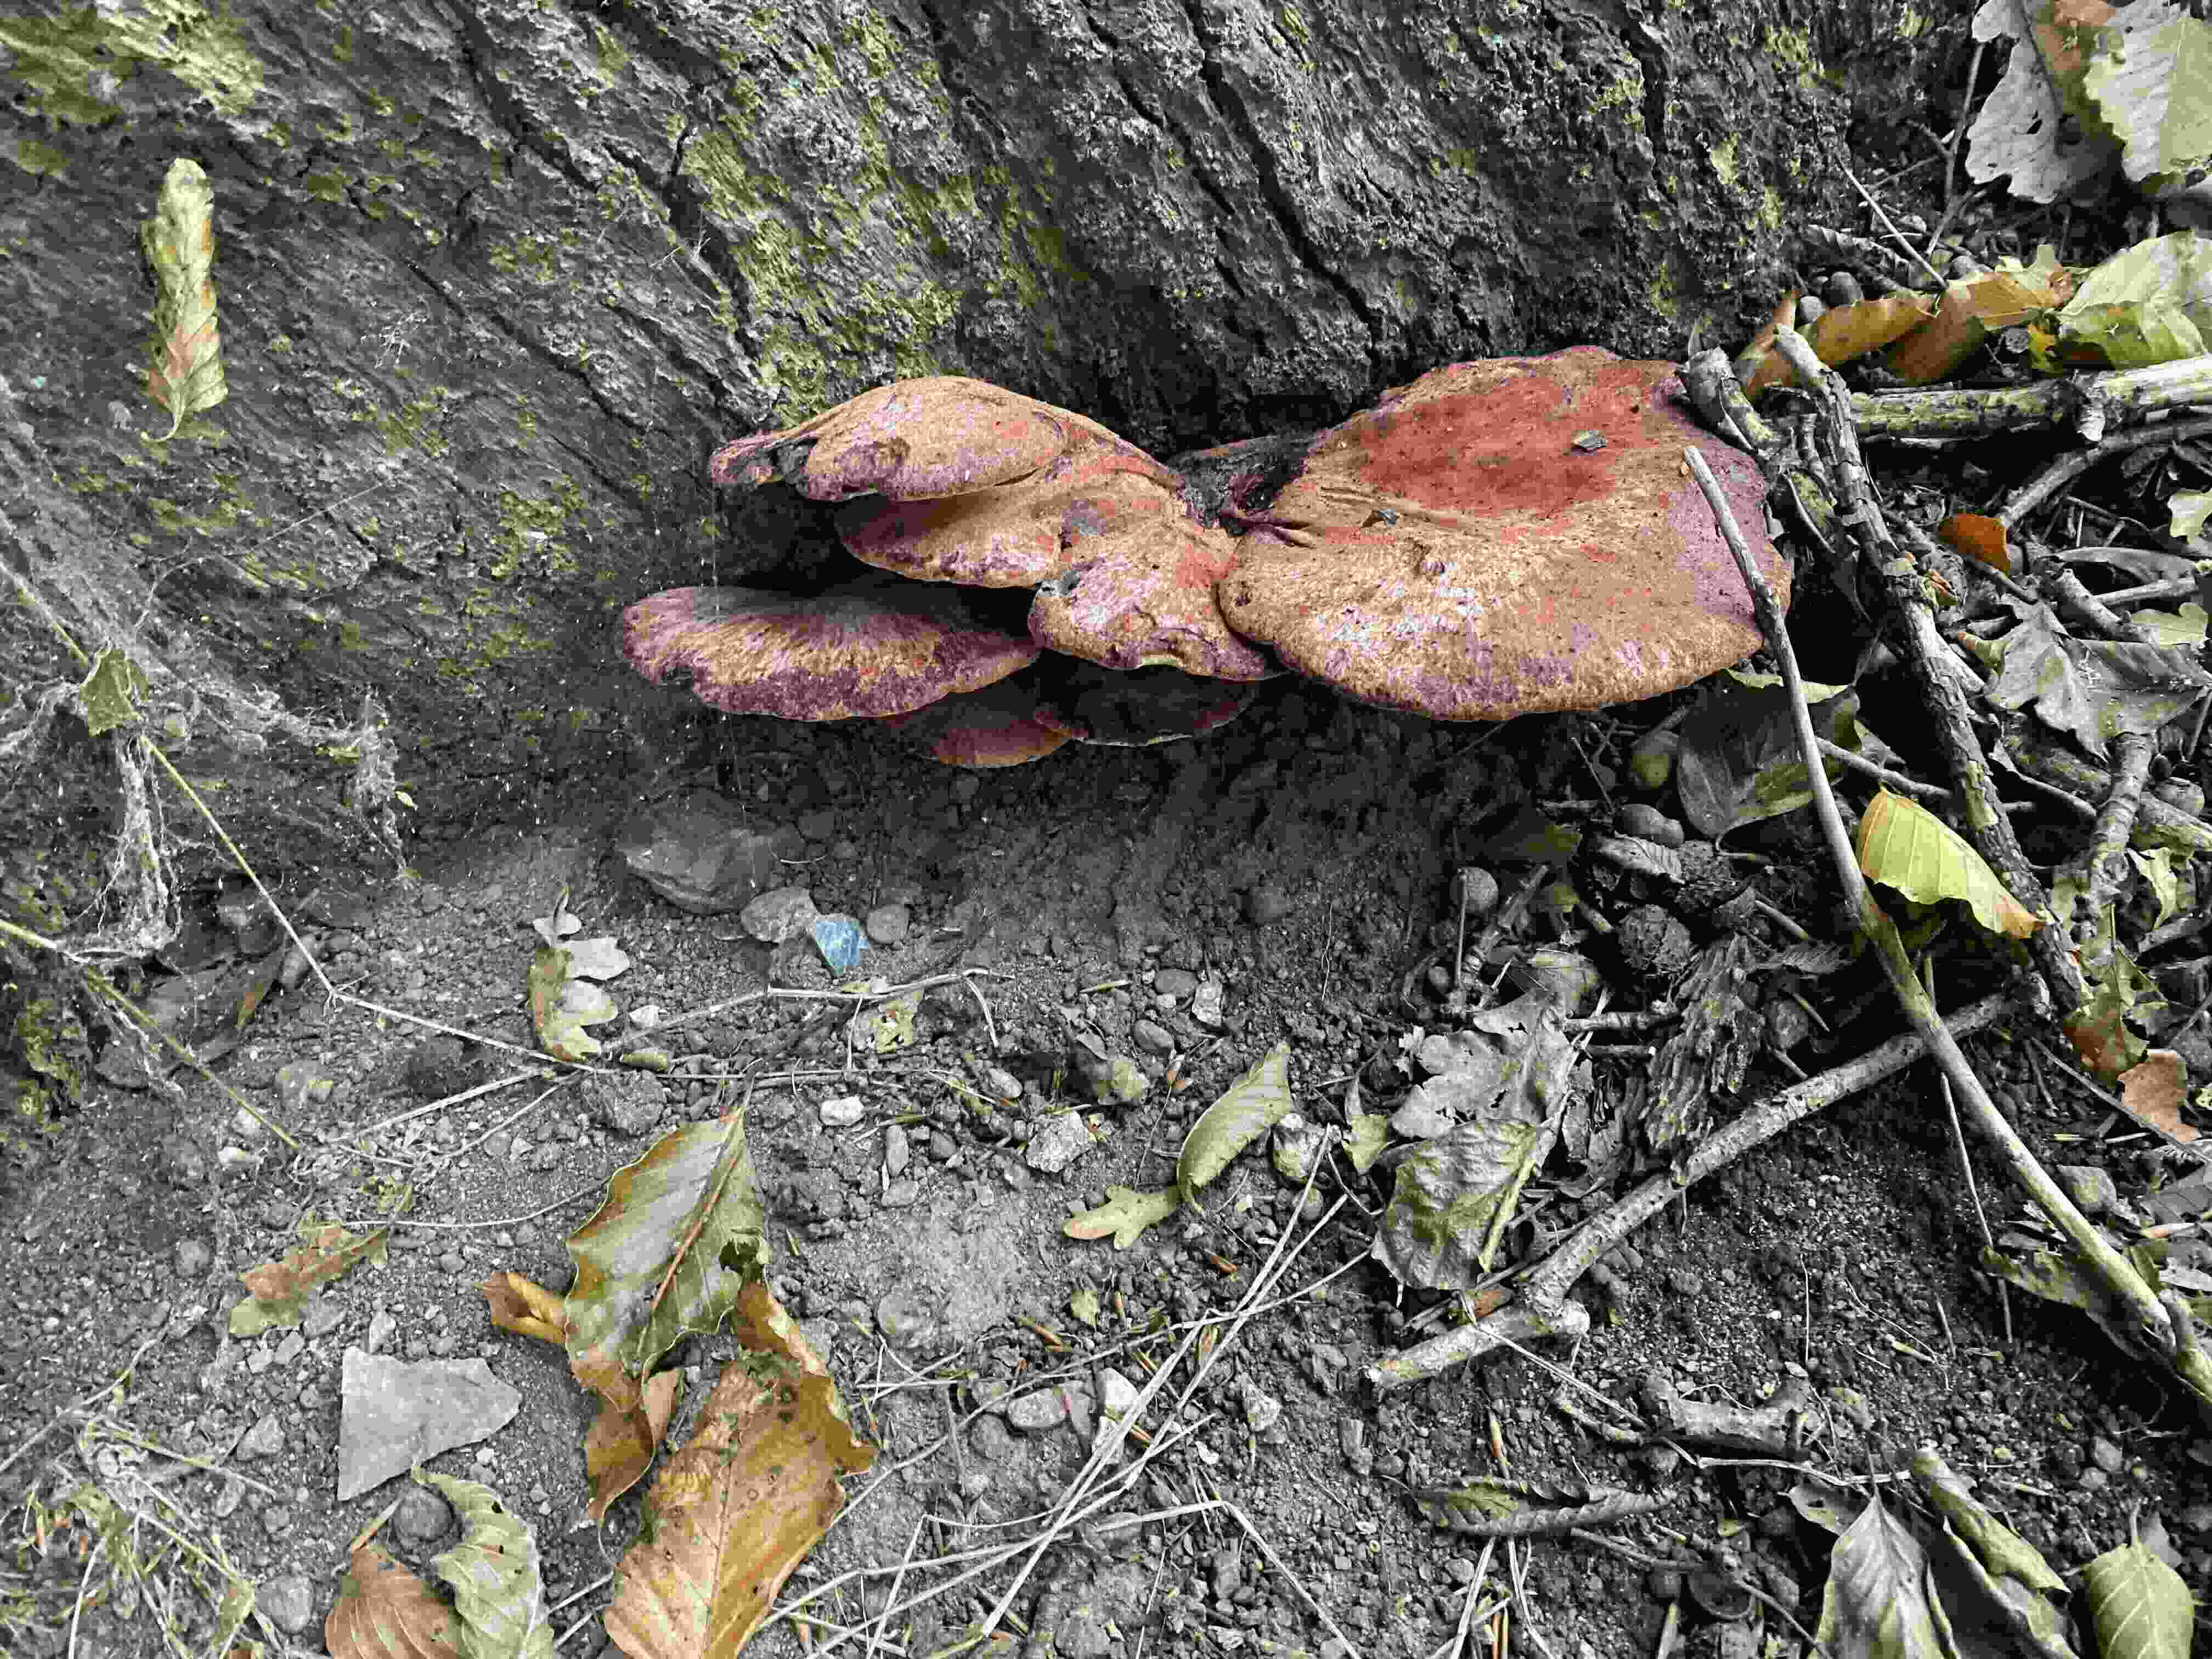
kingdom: Fungi
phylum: Basidiomycota
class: Agaricomycetes
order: Agaricales
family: Fistulinaceae
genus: Fistulina
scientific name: Fistulina hepatica
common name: oksetunge
